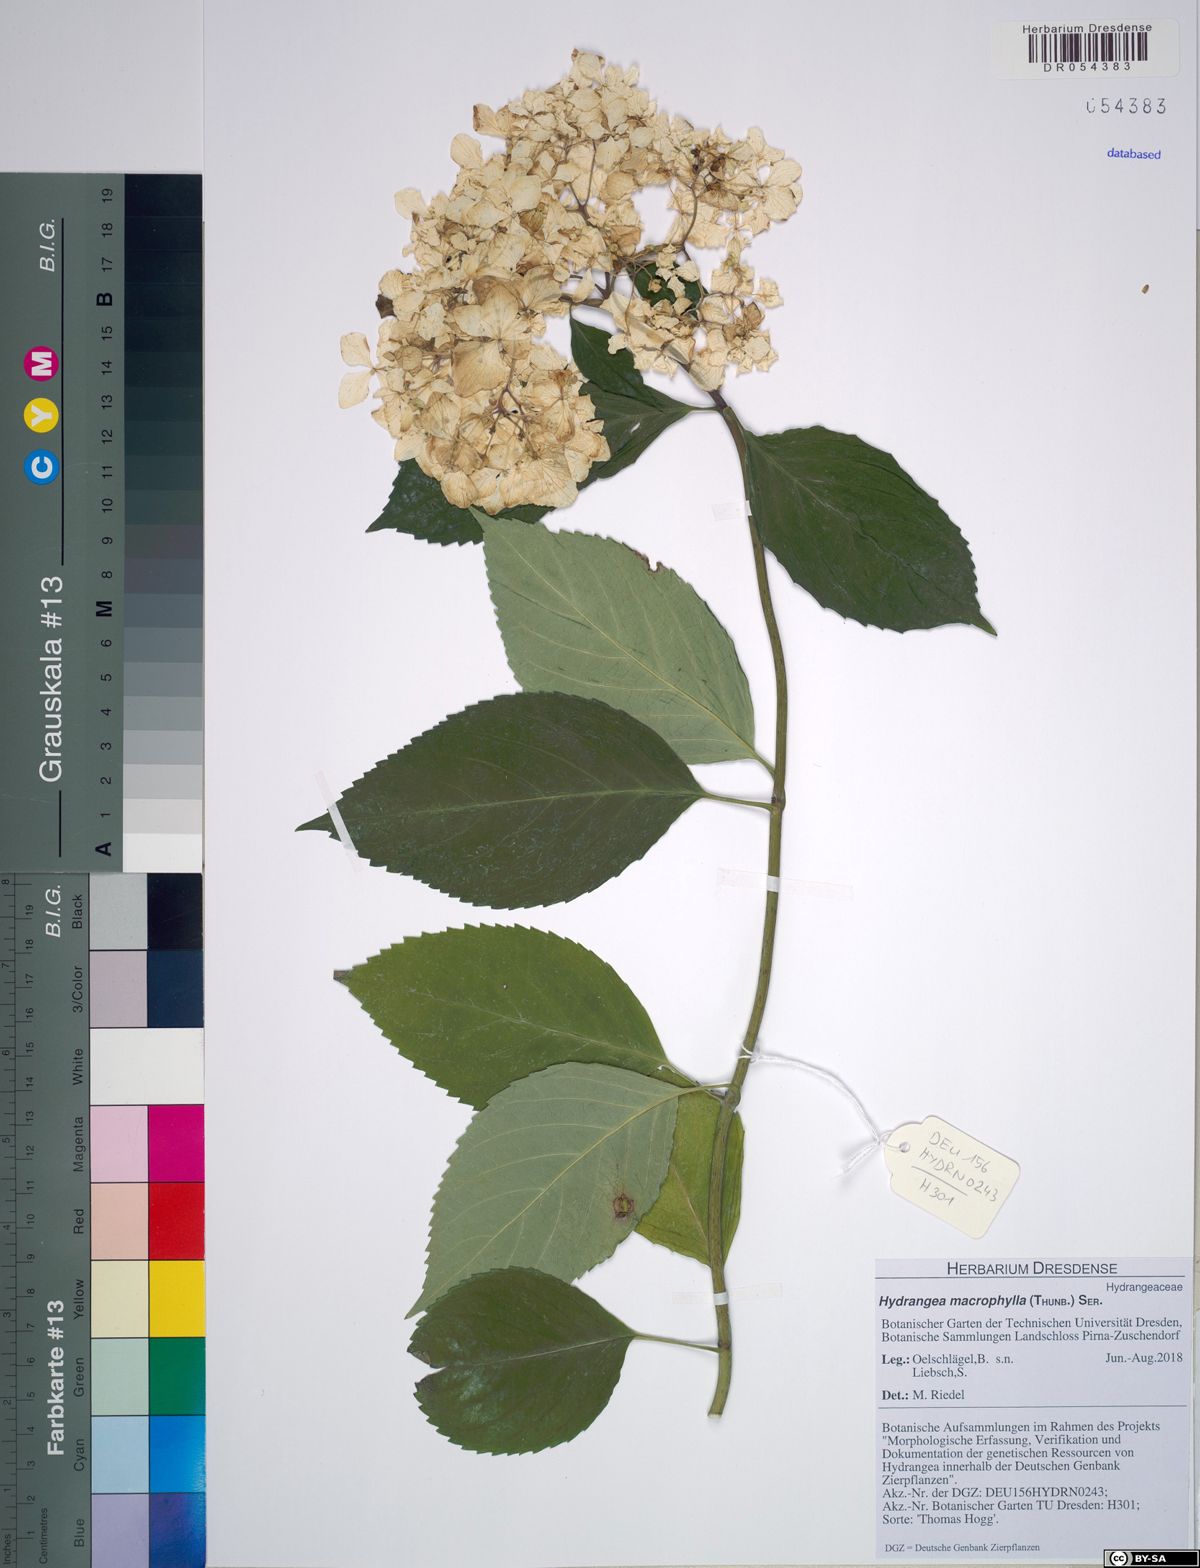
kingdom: Plantae
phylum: Tracheophyta
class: Magnoliopsida
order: Cornales
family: Hydrangeaceae
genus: Hydrangea
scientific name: Hydrangea macrophylla
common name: Hydrangea
